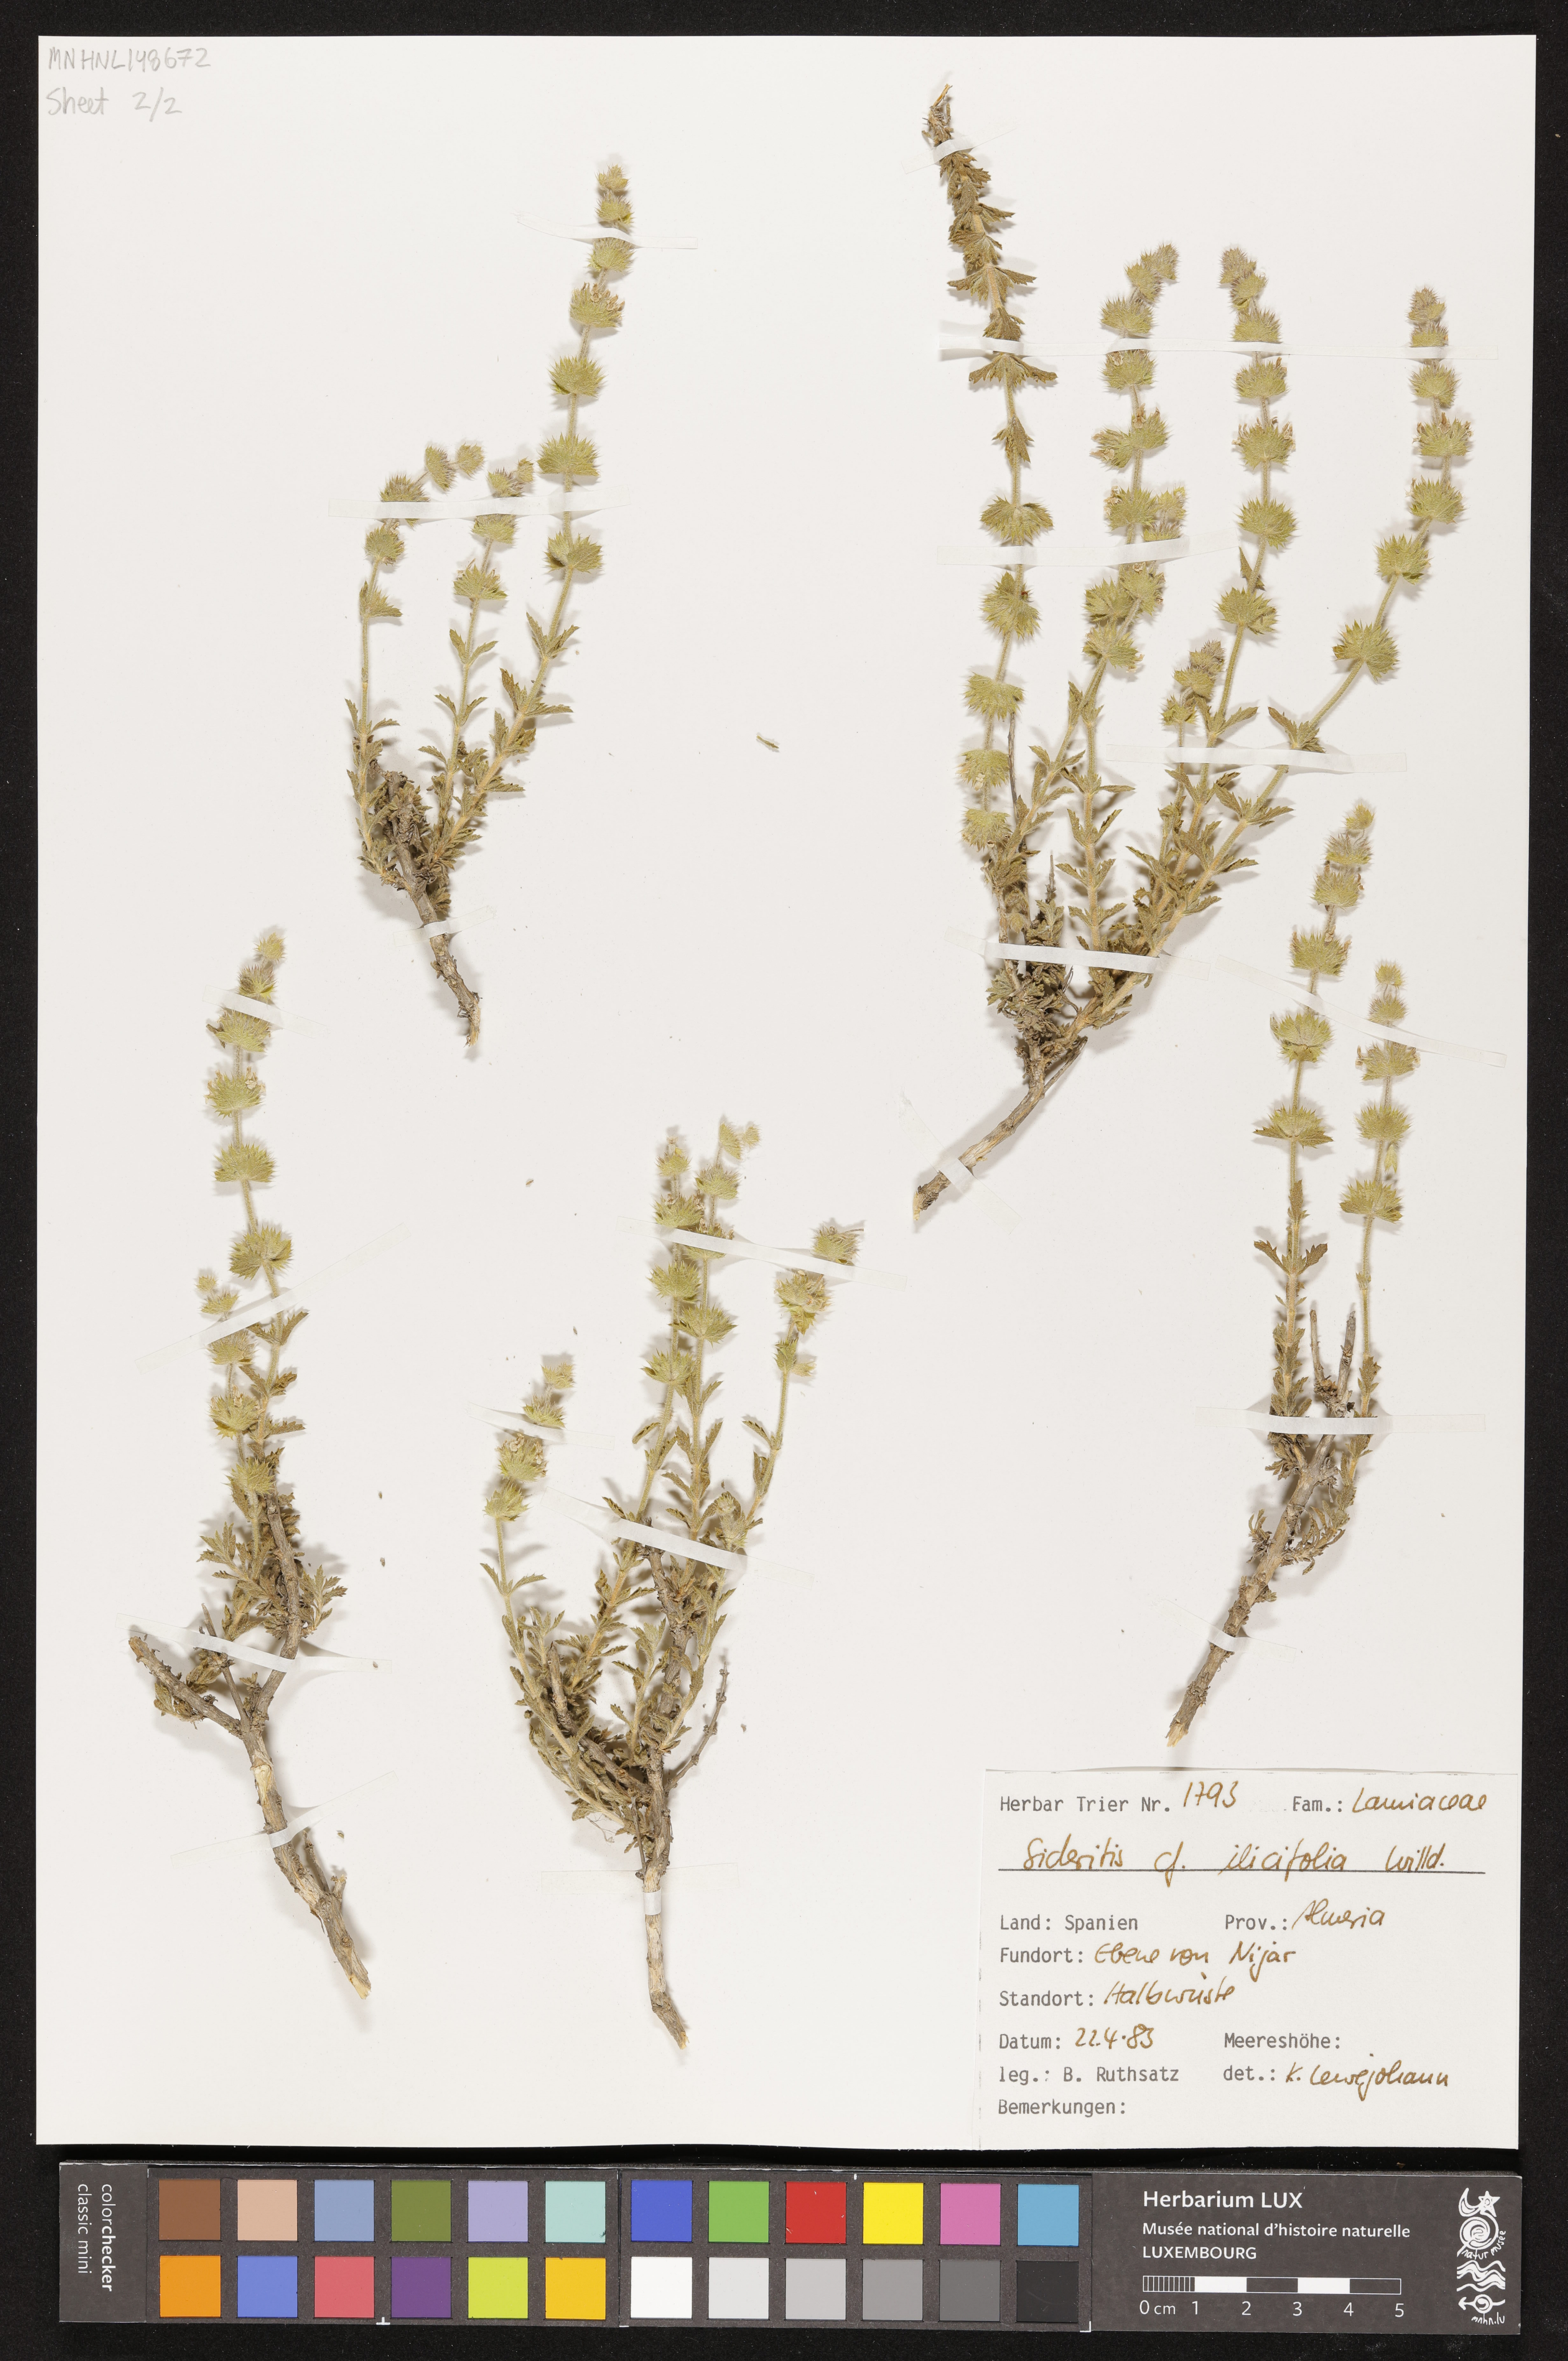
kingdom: Plantae
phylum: Tracheophyta
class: Magnoliopsida
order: Lamiales
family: Lamiaceae
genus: Sideritis
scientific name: Sideritis ilicifolia
